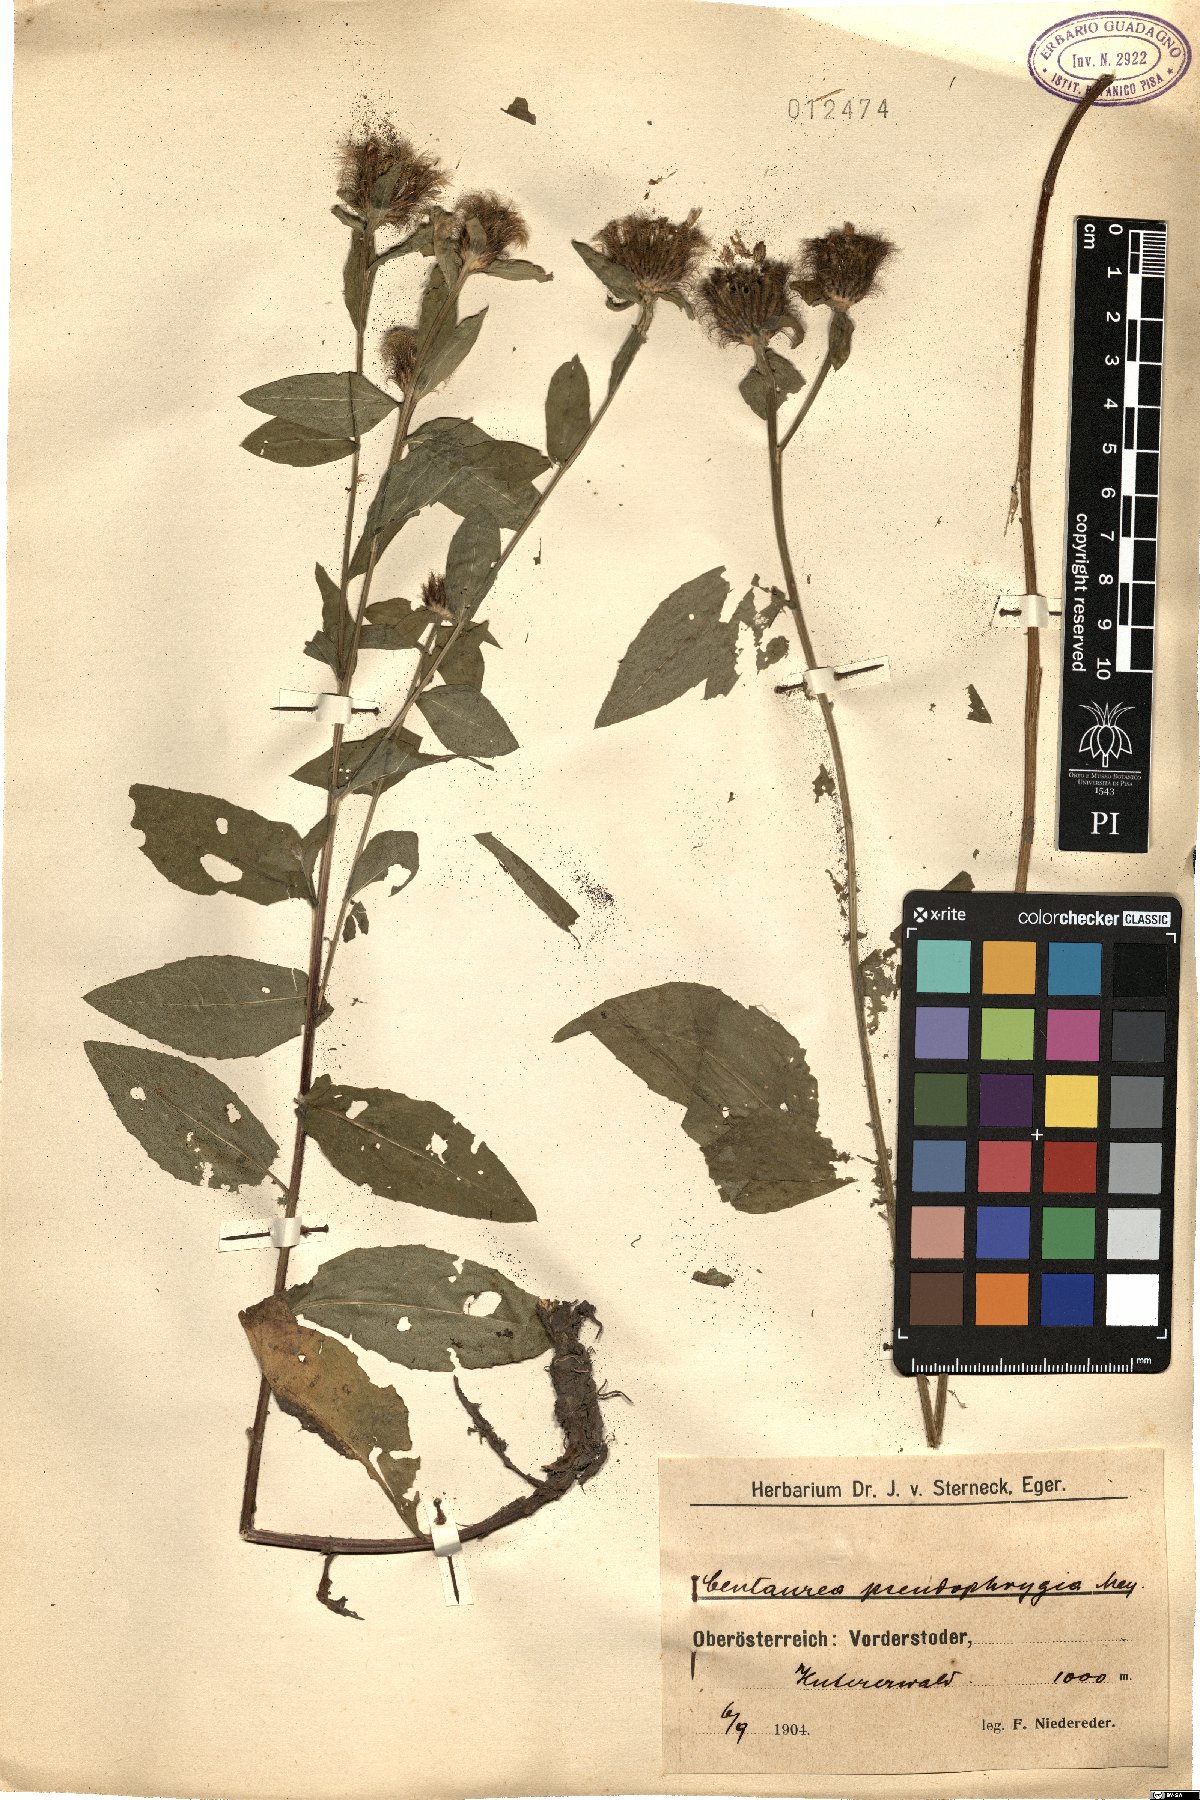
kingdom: Plantae
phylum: Tracheophyta
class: Magnoliopsida
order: Asterales
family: Asteraceae
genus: Centaurea
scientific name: Centaurea pseudophrygia
